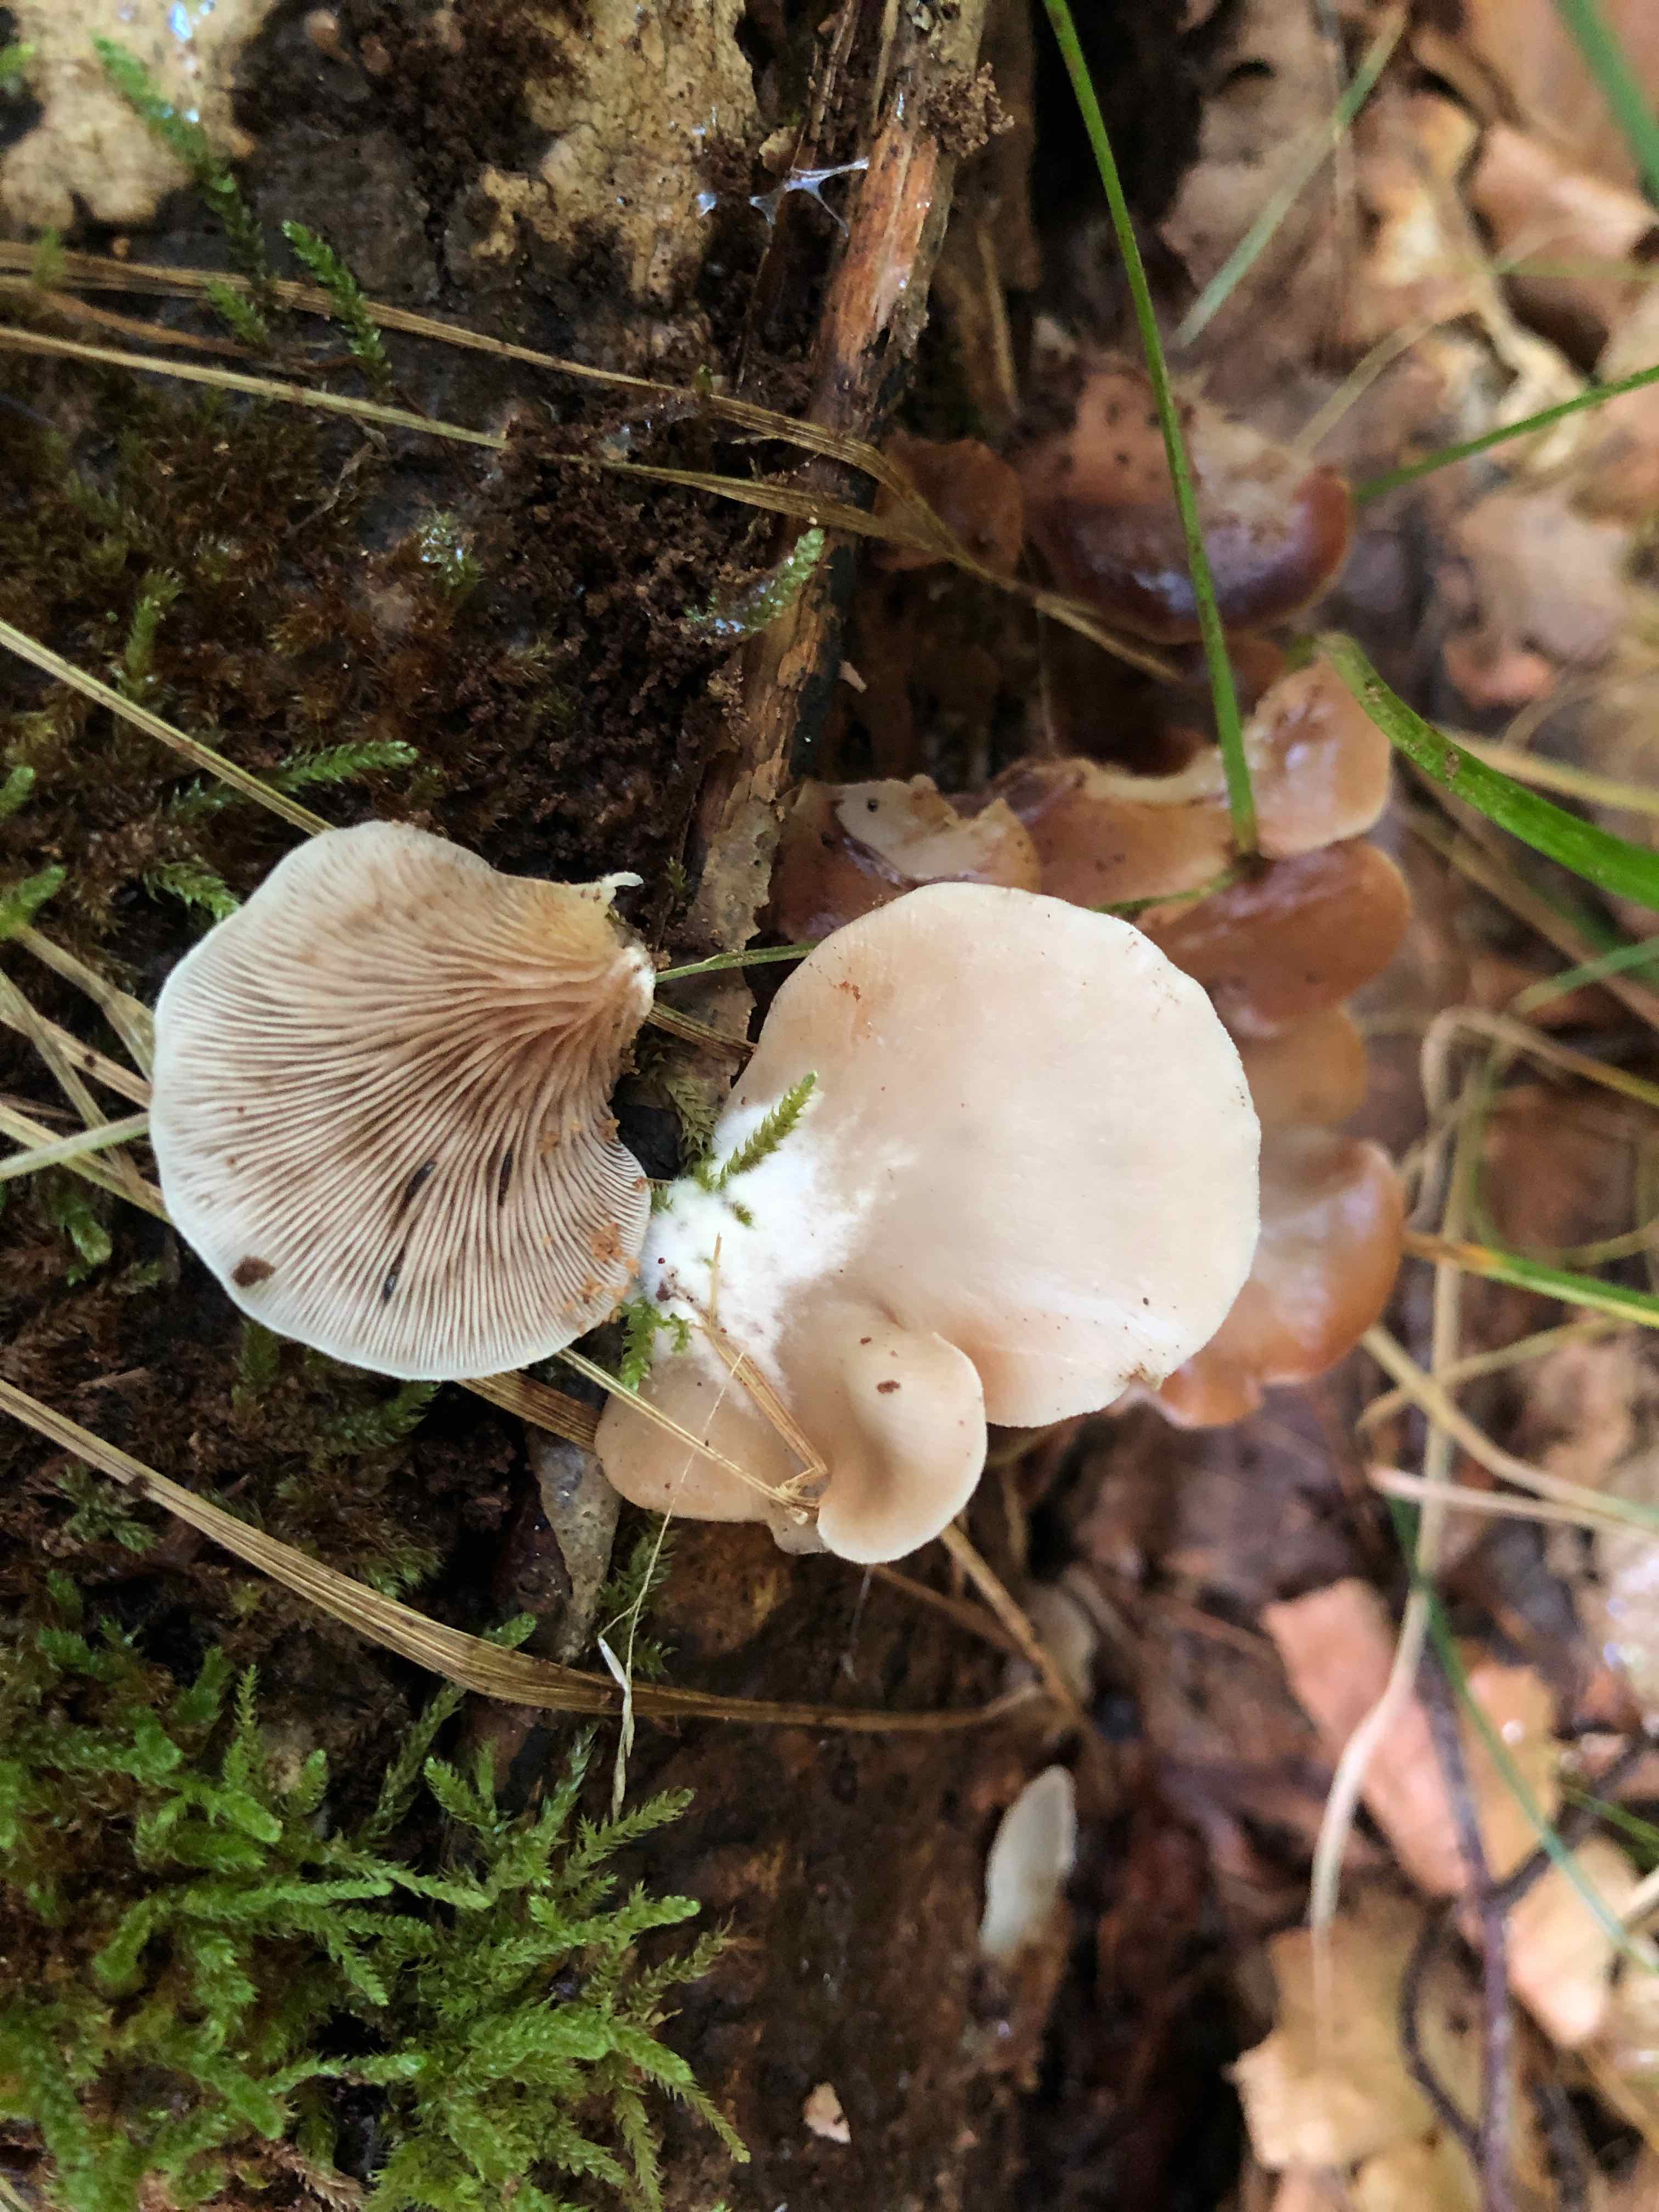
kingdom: Fungi
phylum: Basidiomycota
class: Agaricomycetes
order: Agaricales
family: Crepidotaceae
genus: Crepidotus
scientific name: Crepidotus mollis
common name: blød muslingesvamp
